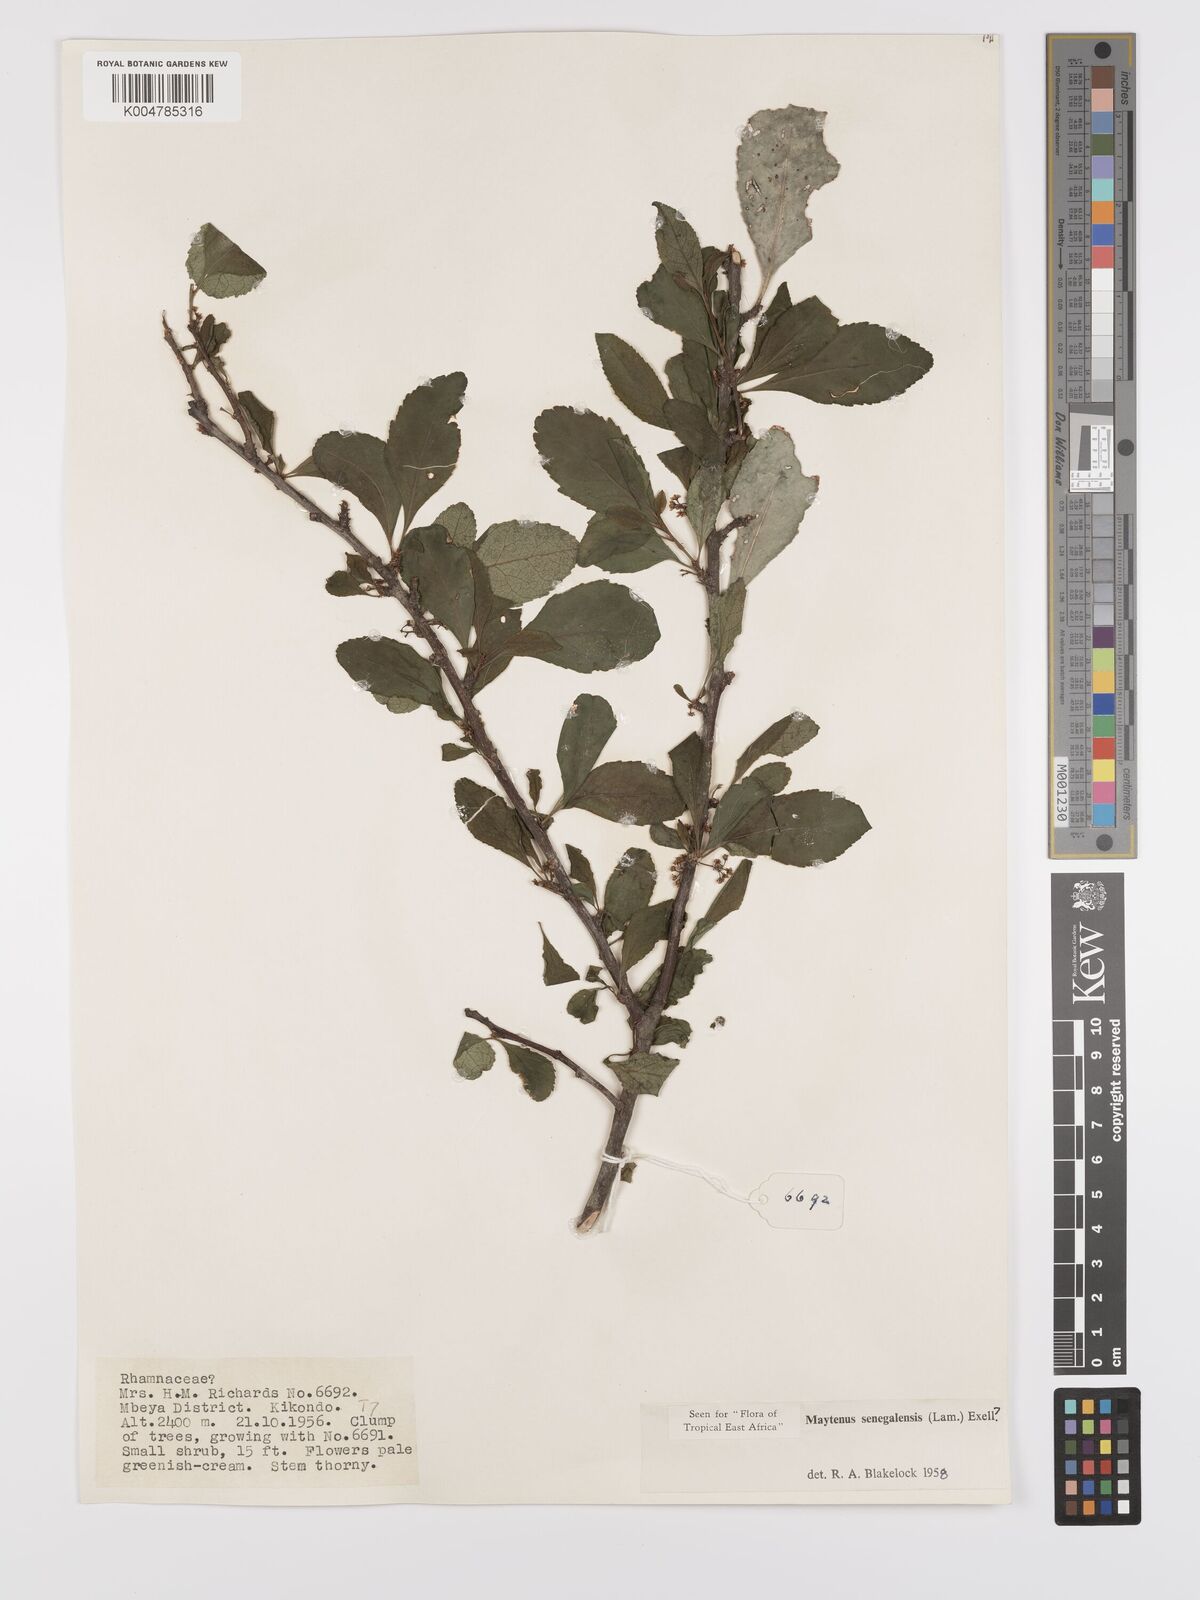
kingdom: Plantae
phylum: Tracheophyta
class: Magnoliopsida
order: Celastrales
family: Celastraceae
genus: Gymnosporia
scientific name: Gymnosporia heterophylla
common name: Angle-stem spikethorn
